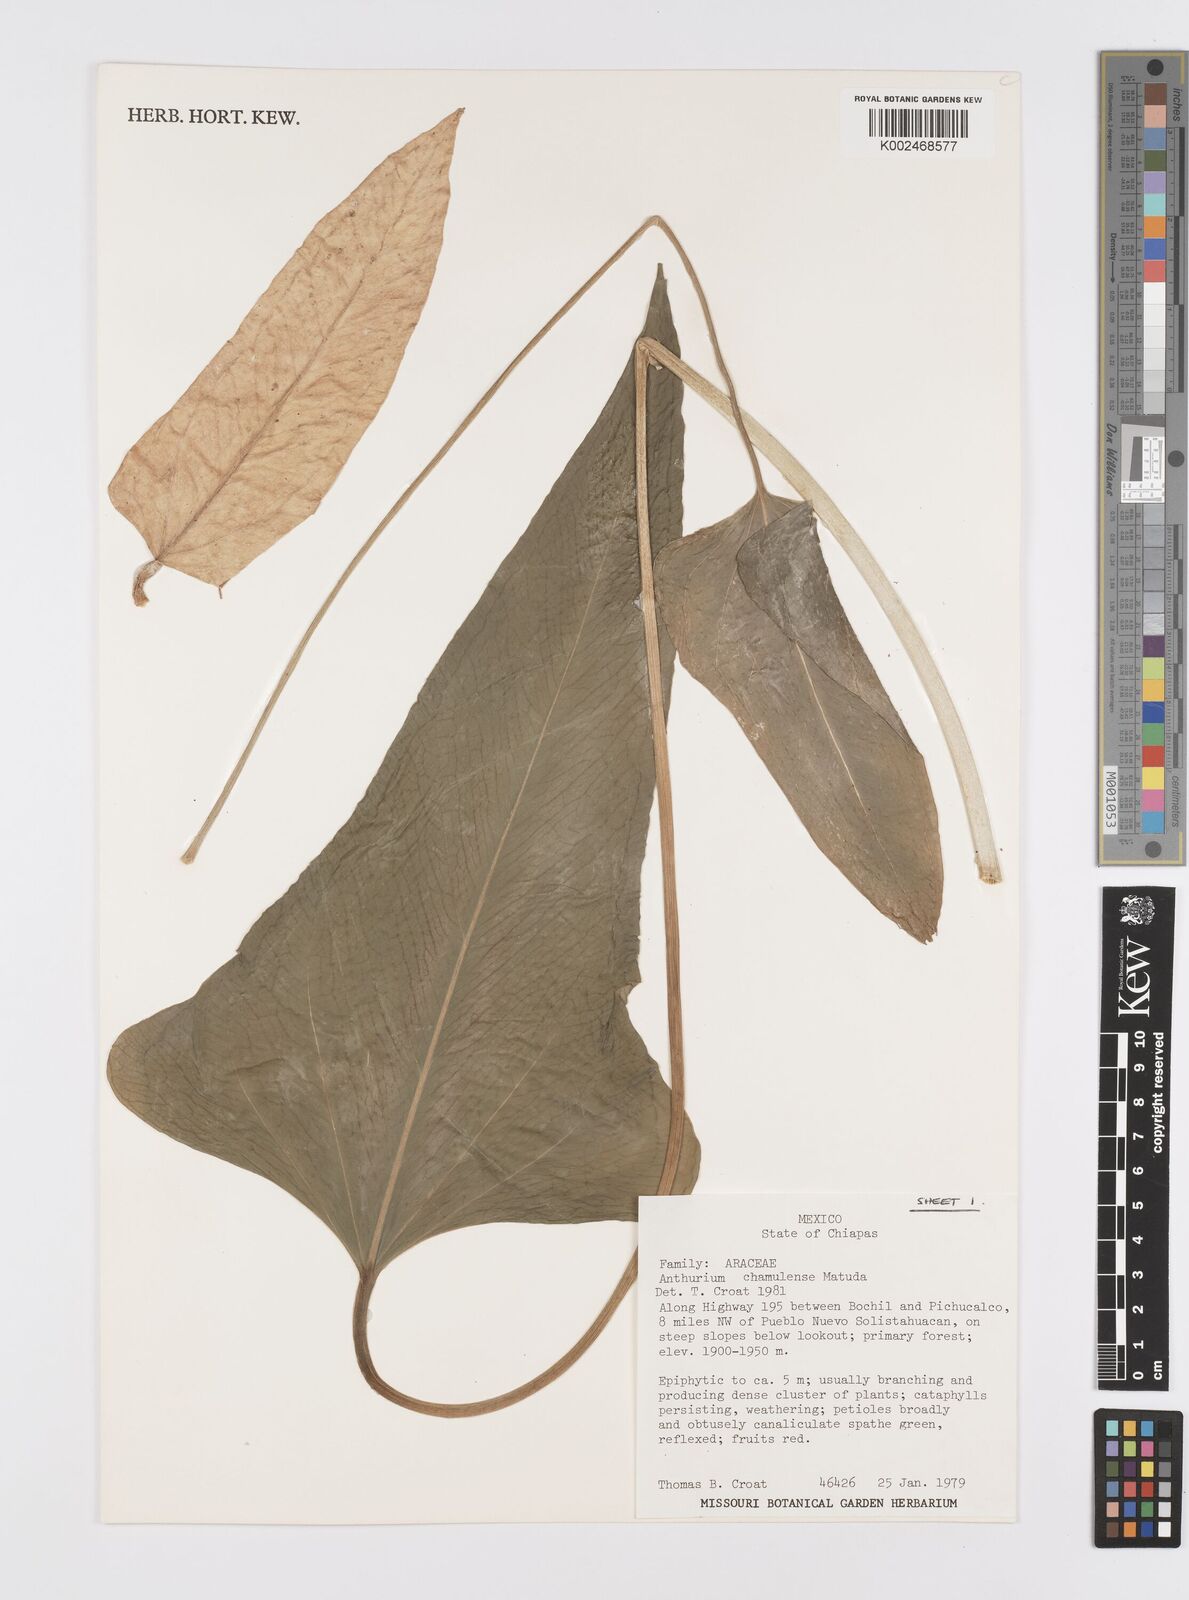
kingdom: Plantae
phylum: Tracheophyta
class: Liliopsida
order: Alismatales
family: Araceae
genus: Anthurium
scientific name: Anthurium chamulense
